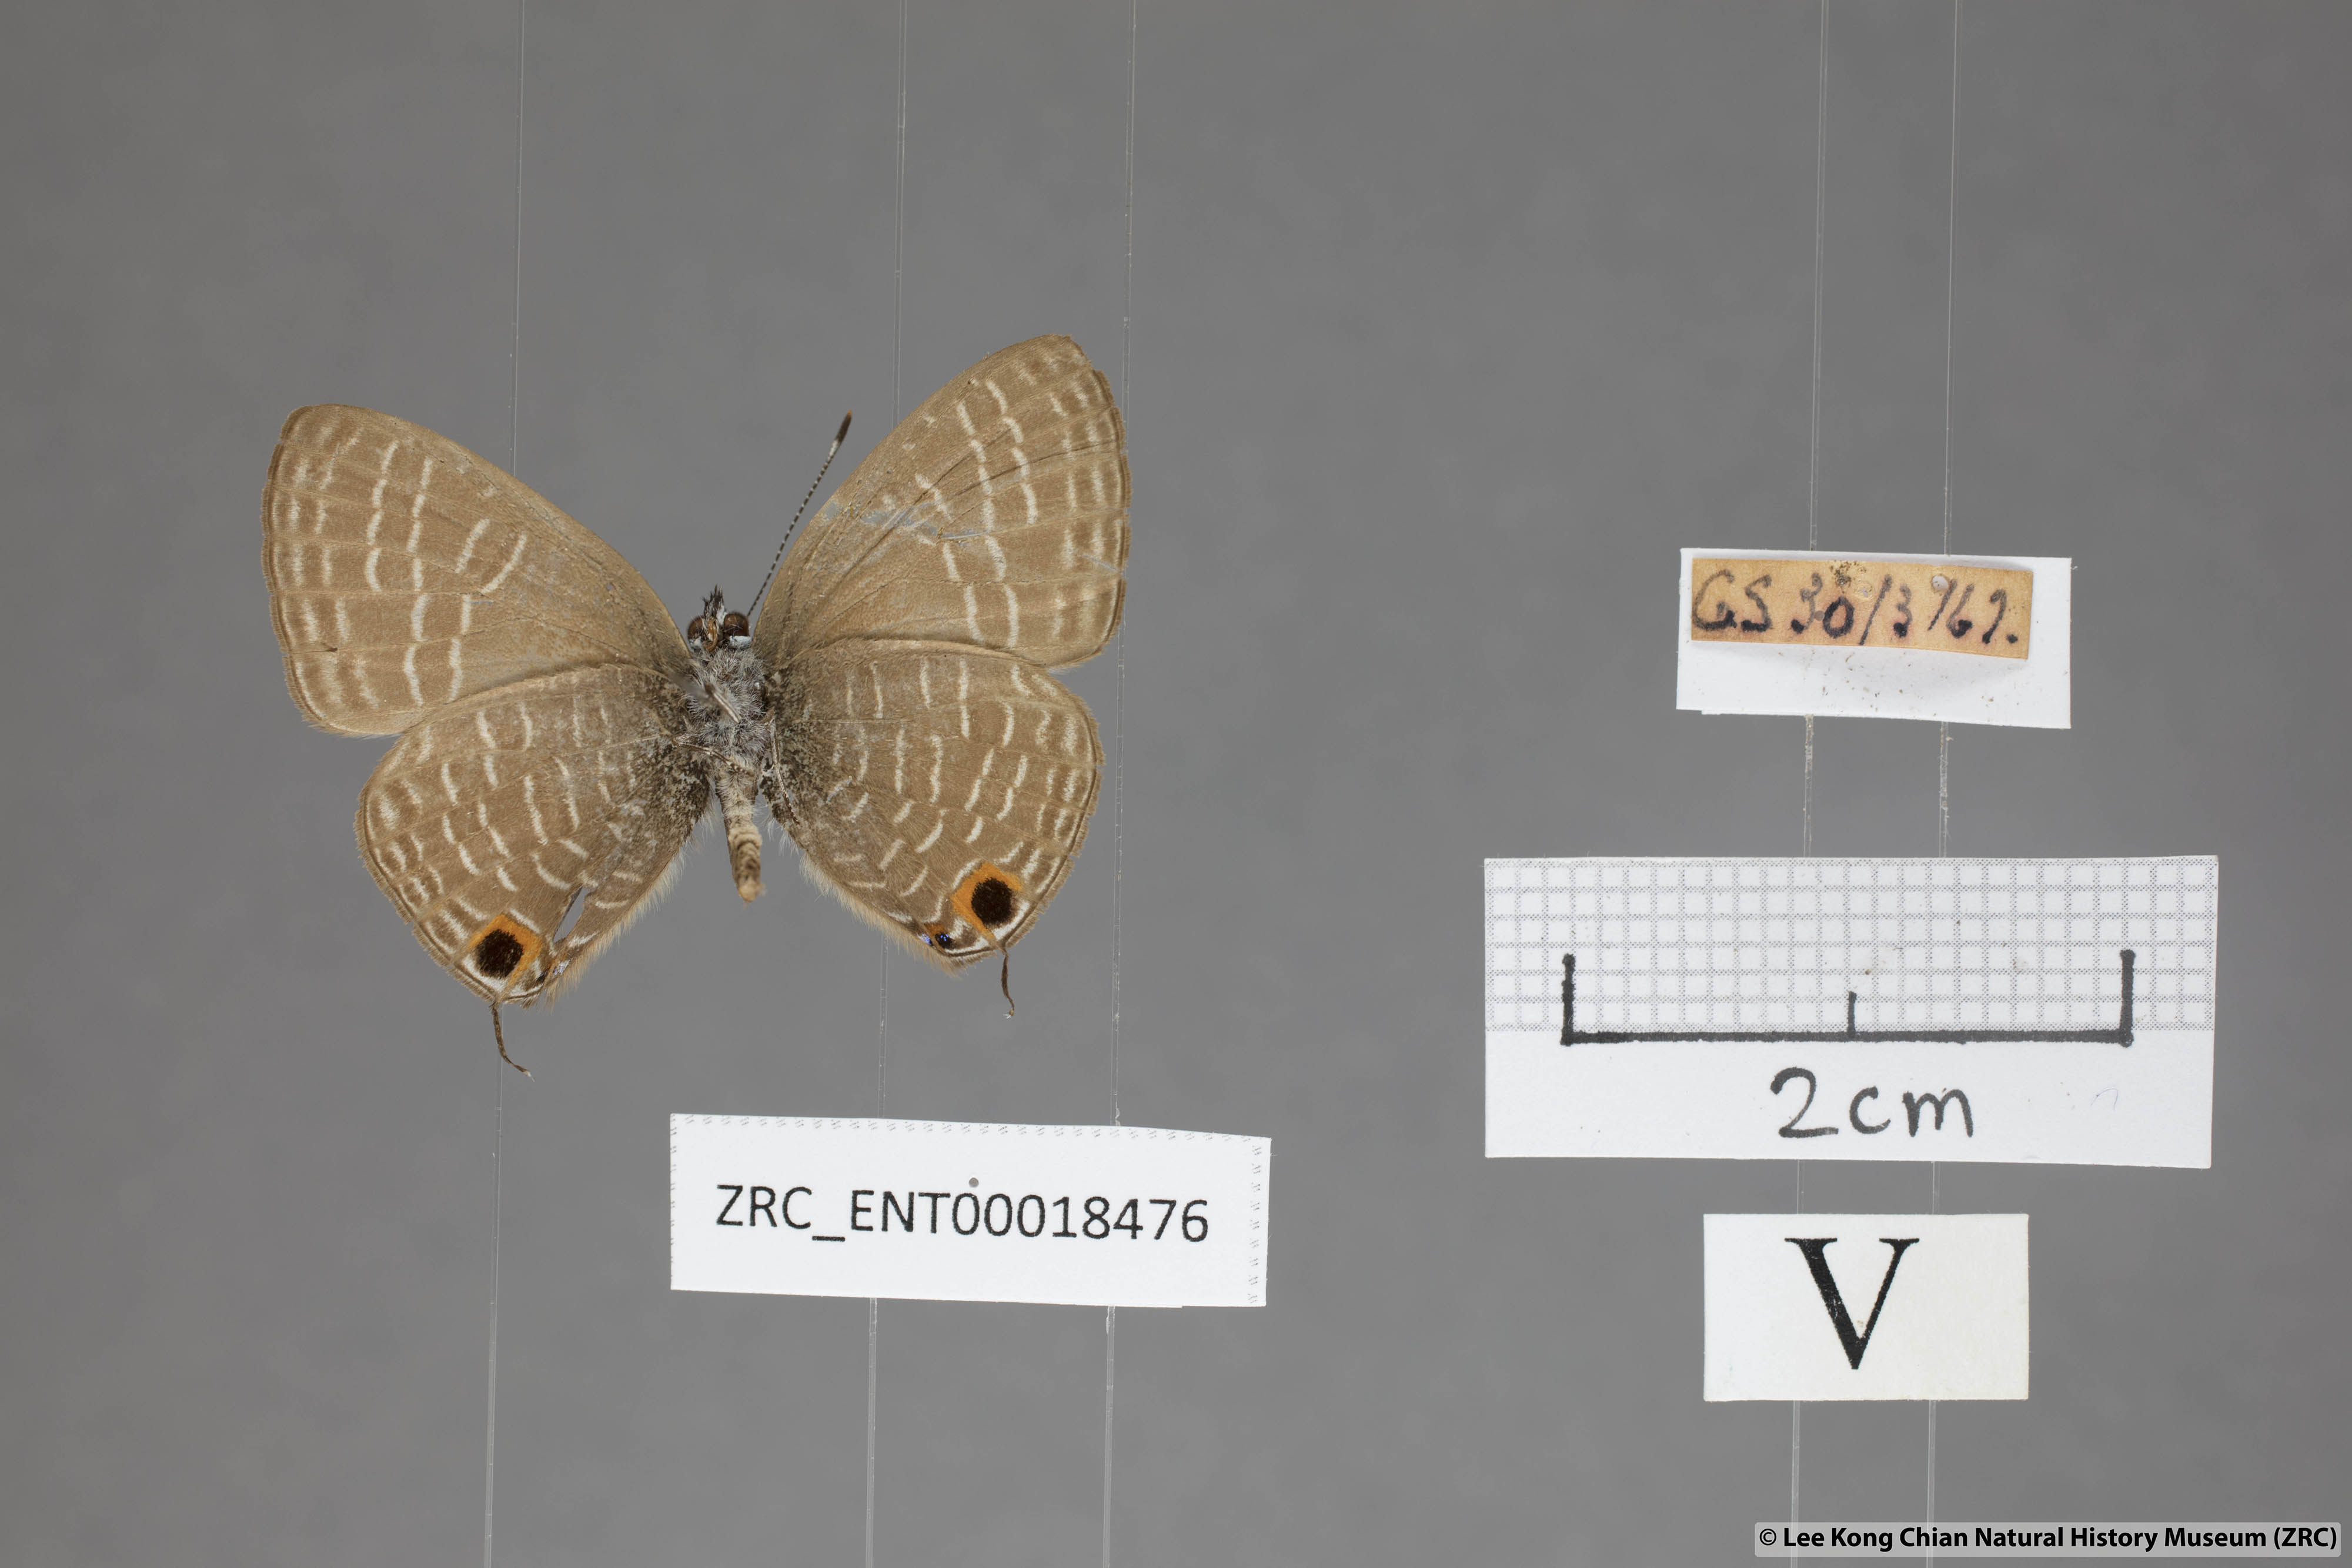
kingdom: Animalia
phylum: Arthropoda
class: Insecta
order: Lepidoptera
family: Lycaenidae
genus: Nacaduba
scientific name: Nacaduba solta
